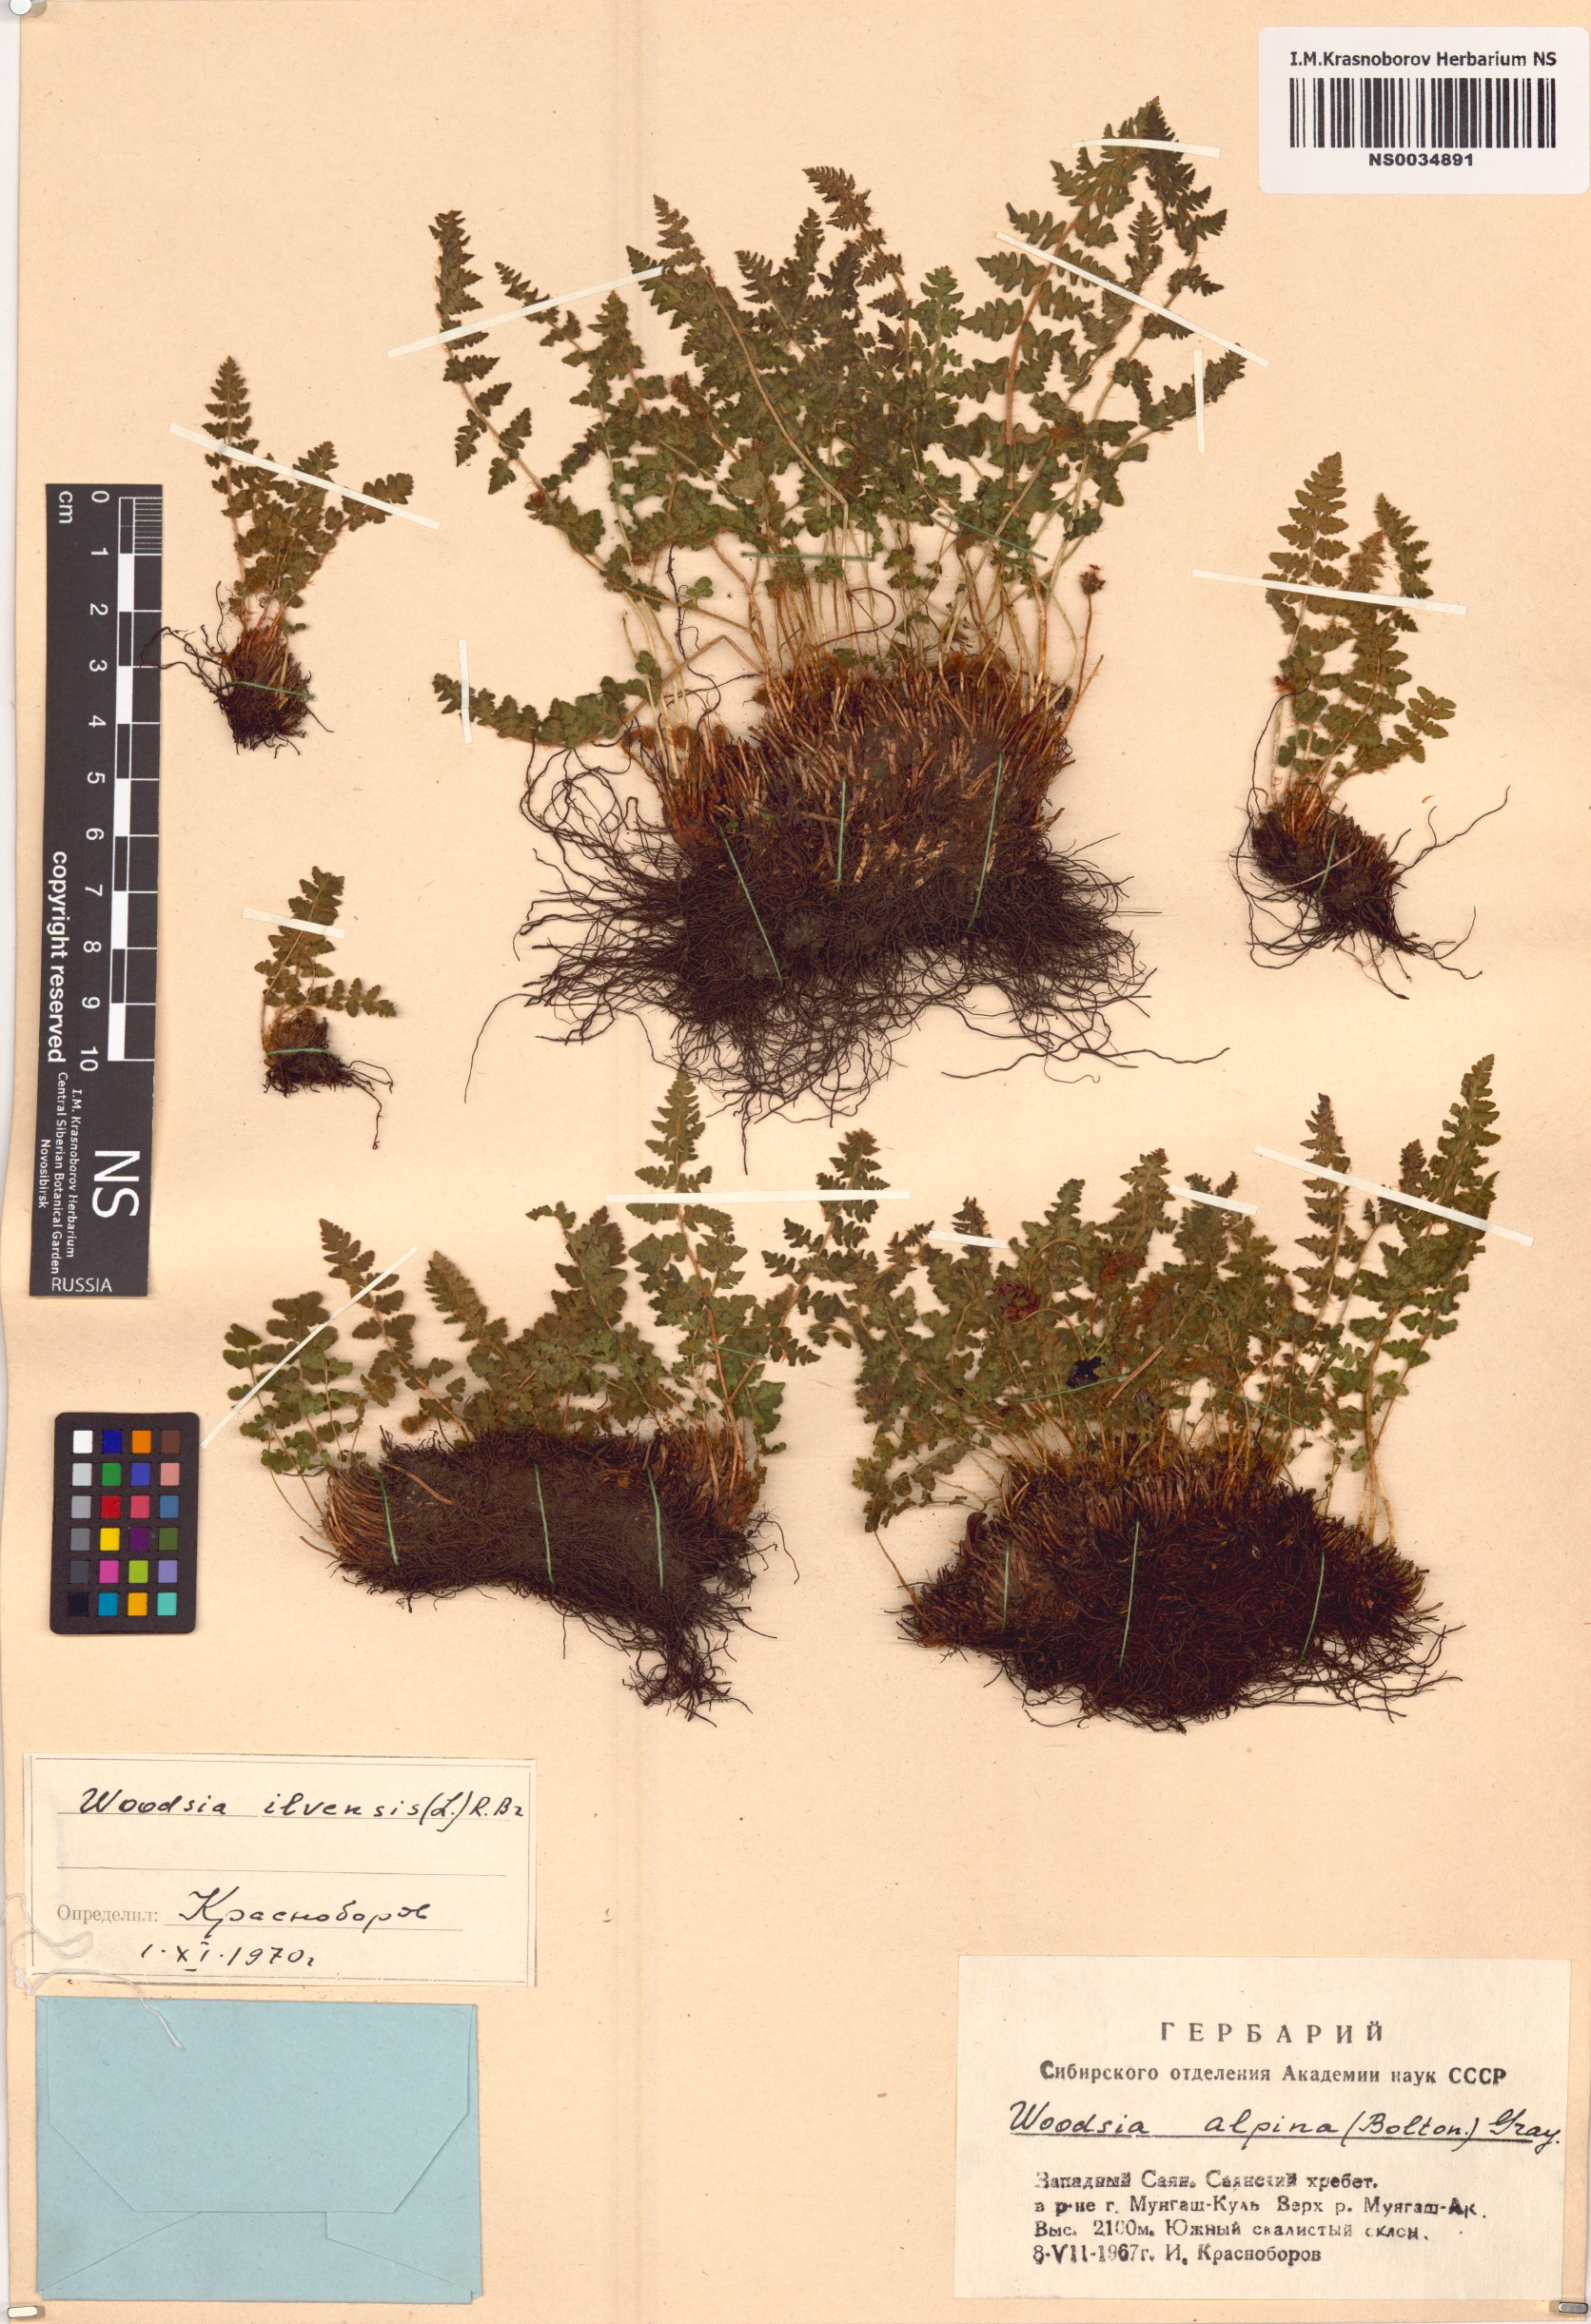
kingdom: Plantae
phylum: Tracheophyta
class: Polypodiopsida
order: Polypodiales
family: Woodsiaceae
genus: Woodsia
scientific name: Woodsia ilvensis
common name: Fragrant woodsia
